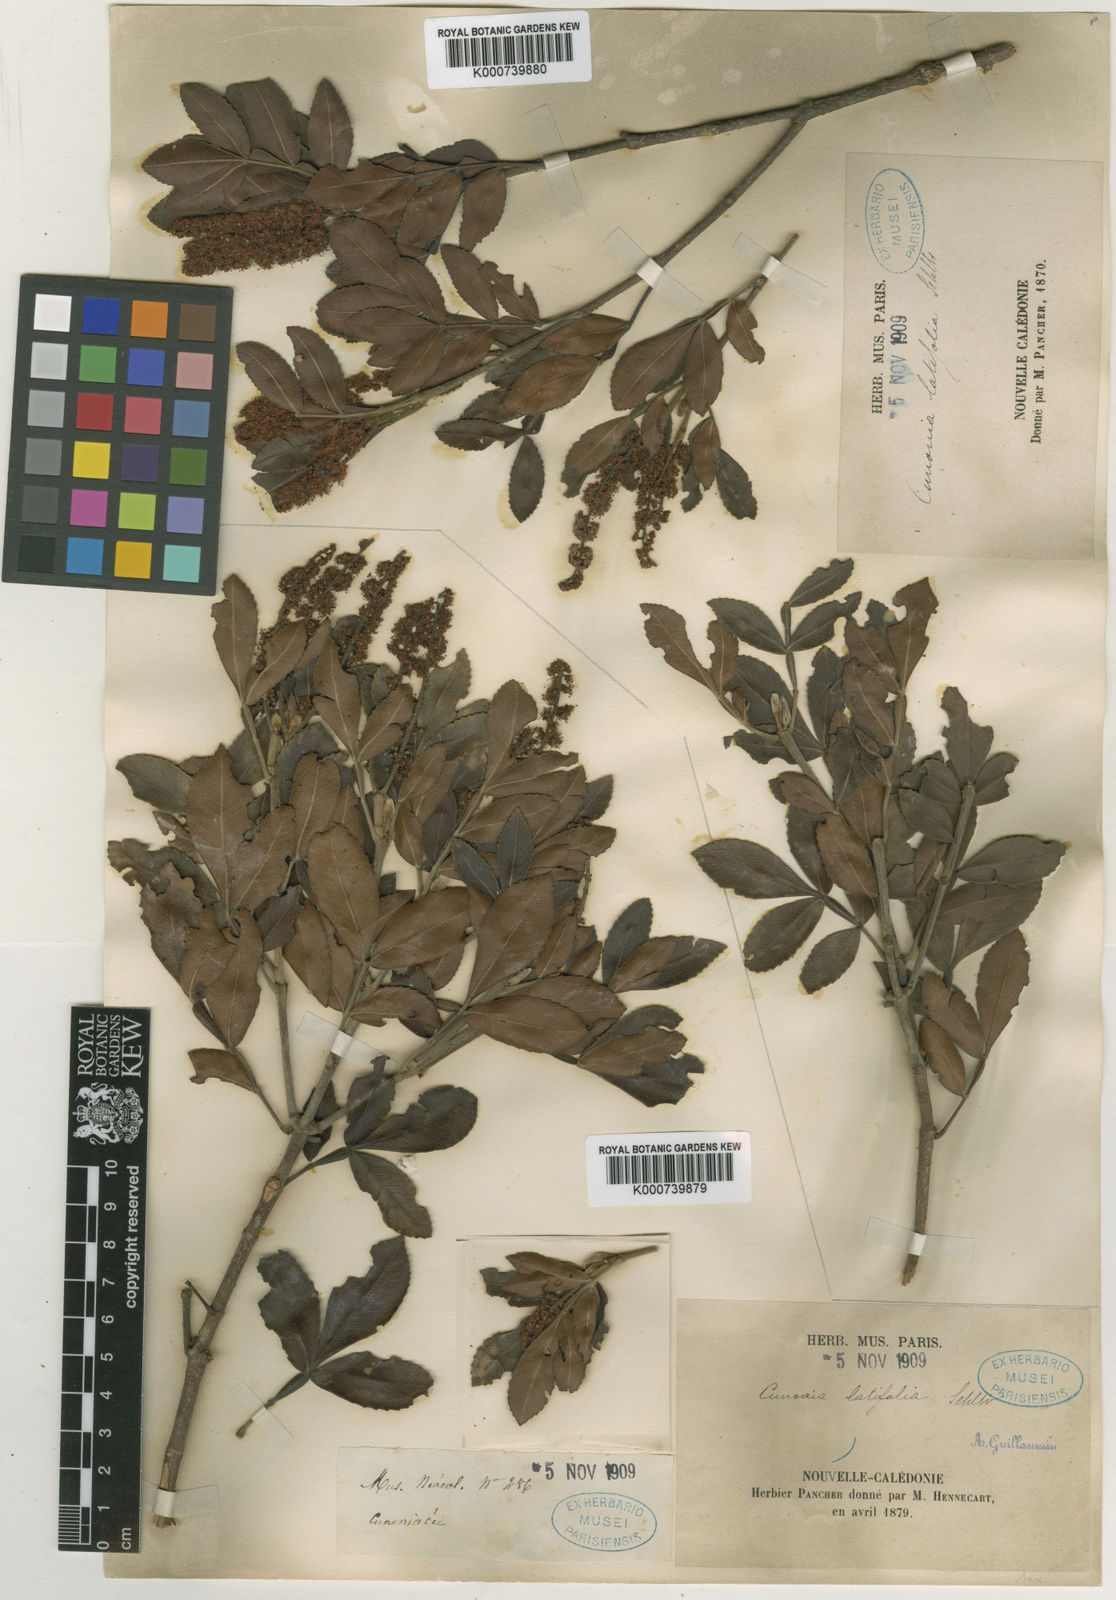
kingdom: Plantae
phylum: Tracheophyta
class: Magnoliopsida
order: Oxalidales
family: Cunoniaceae
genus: Cunonia
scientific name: Cunonia pulchella
